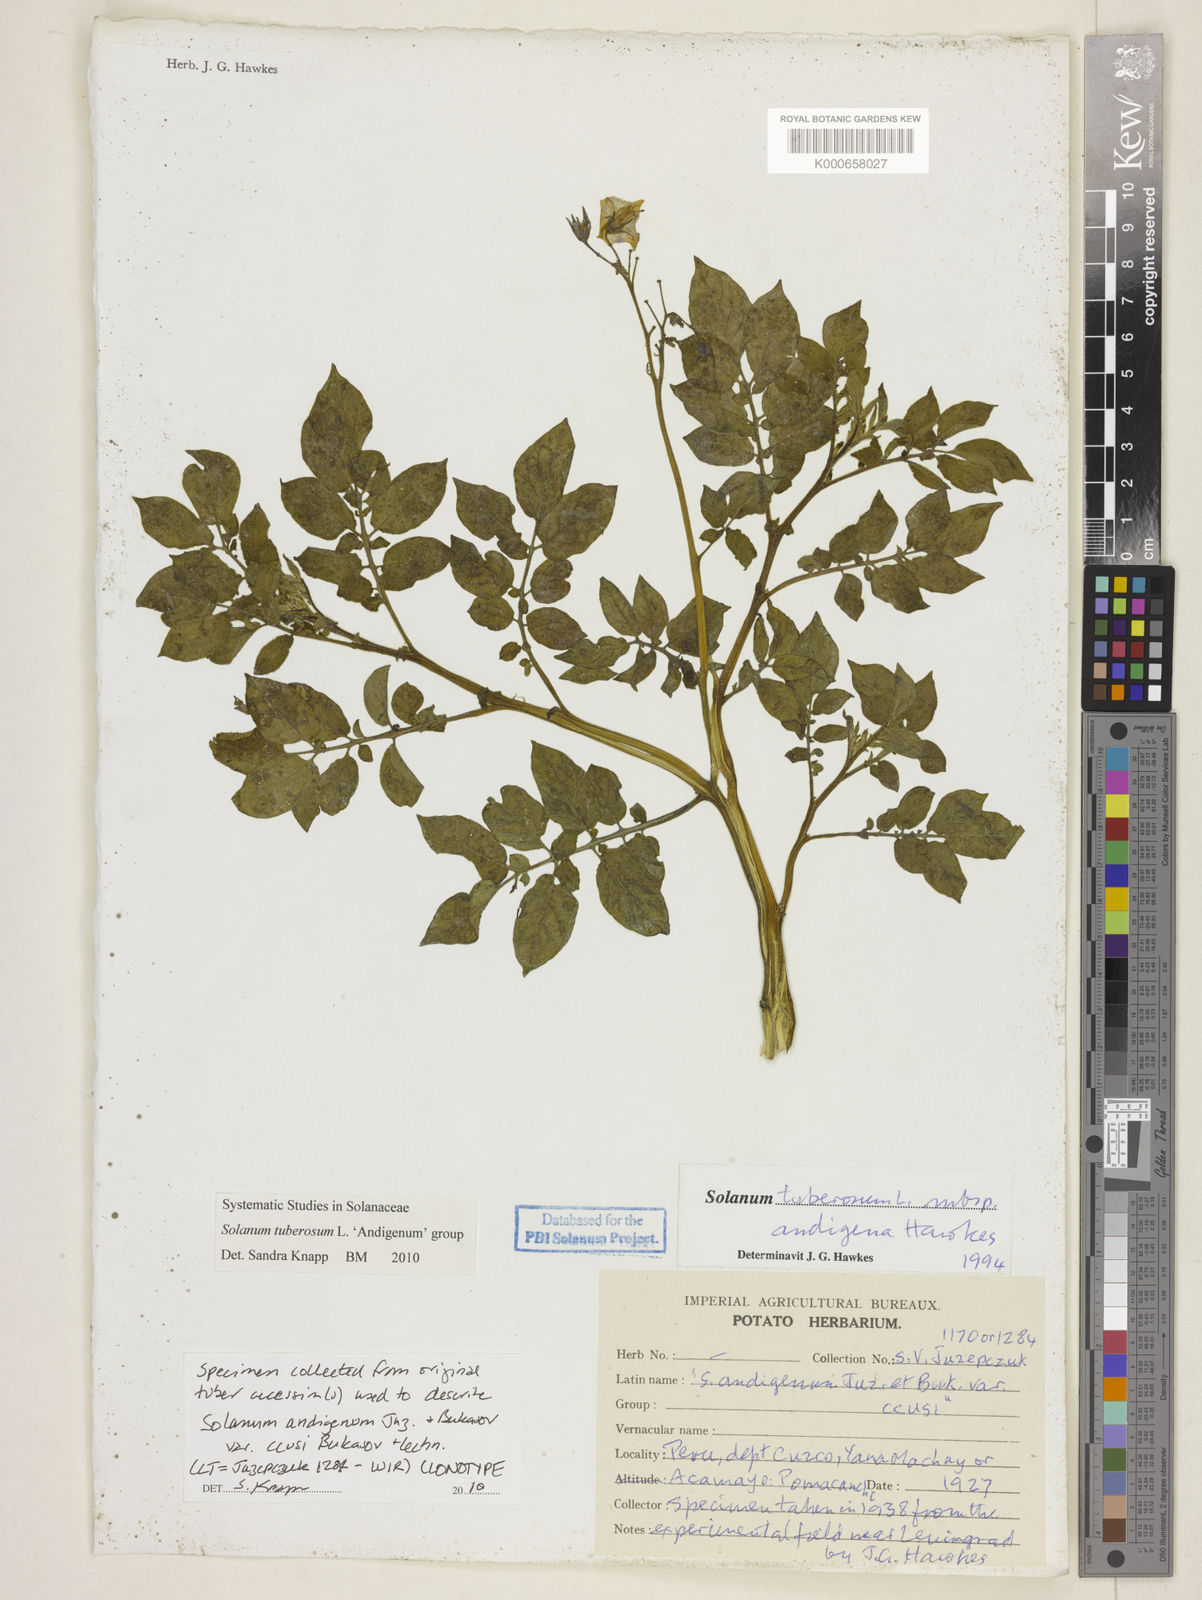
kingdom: Plantae
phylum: Tracheophyta
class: Magnoliopsida
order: Solanales
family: Solanaceae
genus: Solanum
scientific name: Solanum tuberosum
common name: Potato
